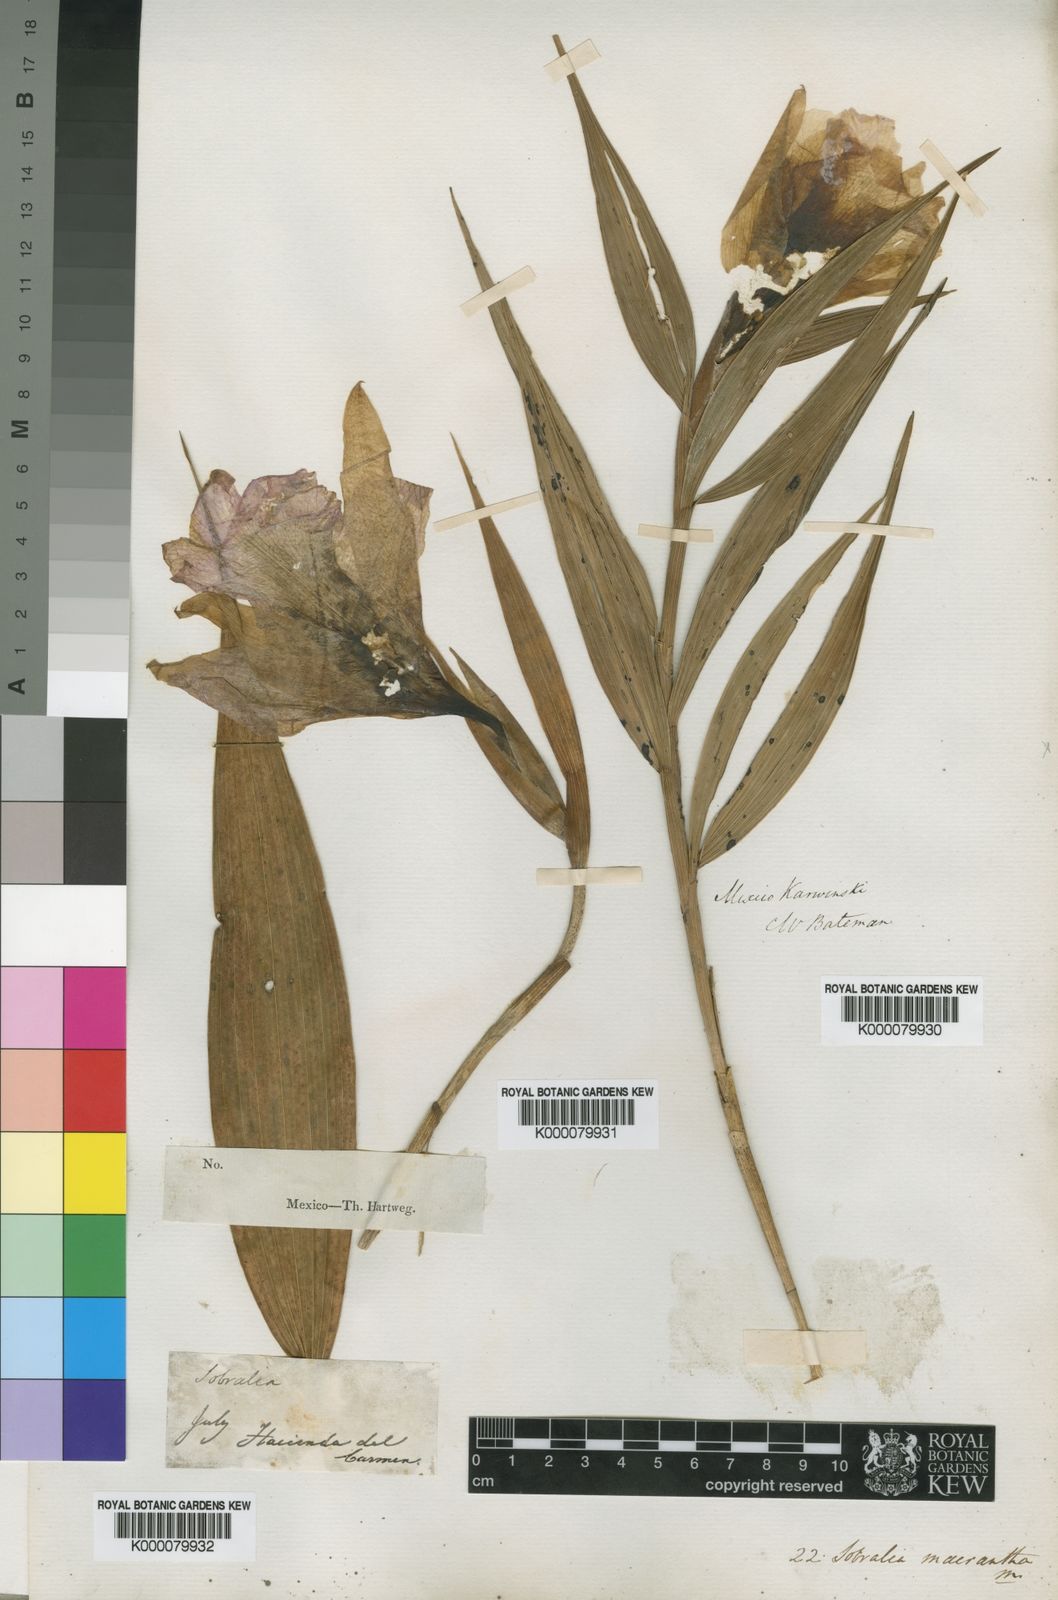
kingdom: Plantae
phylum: Tracheophyta
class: Liliopsida
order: Asparagales
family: Orchidaceae
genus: Sobralia
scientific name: Sobralia macrantha
